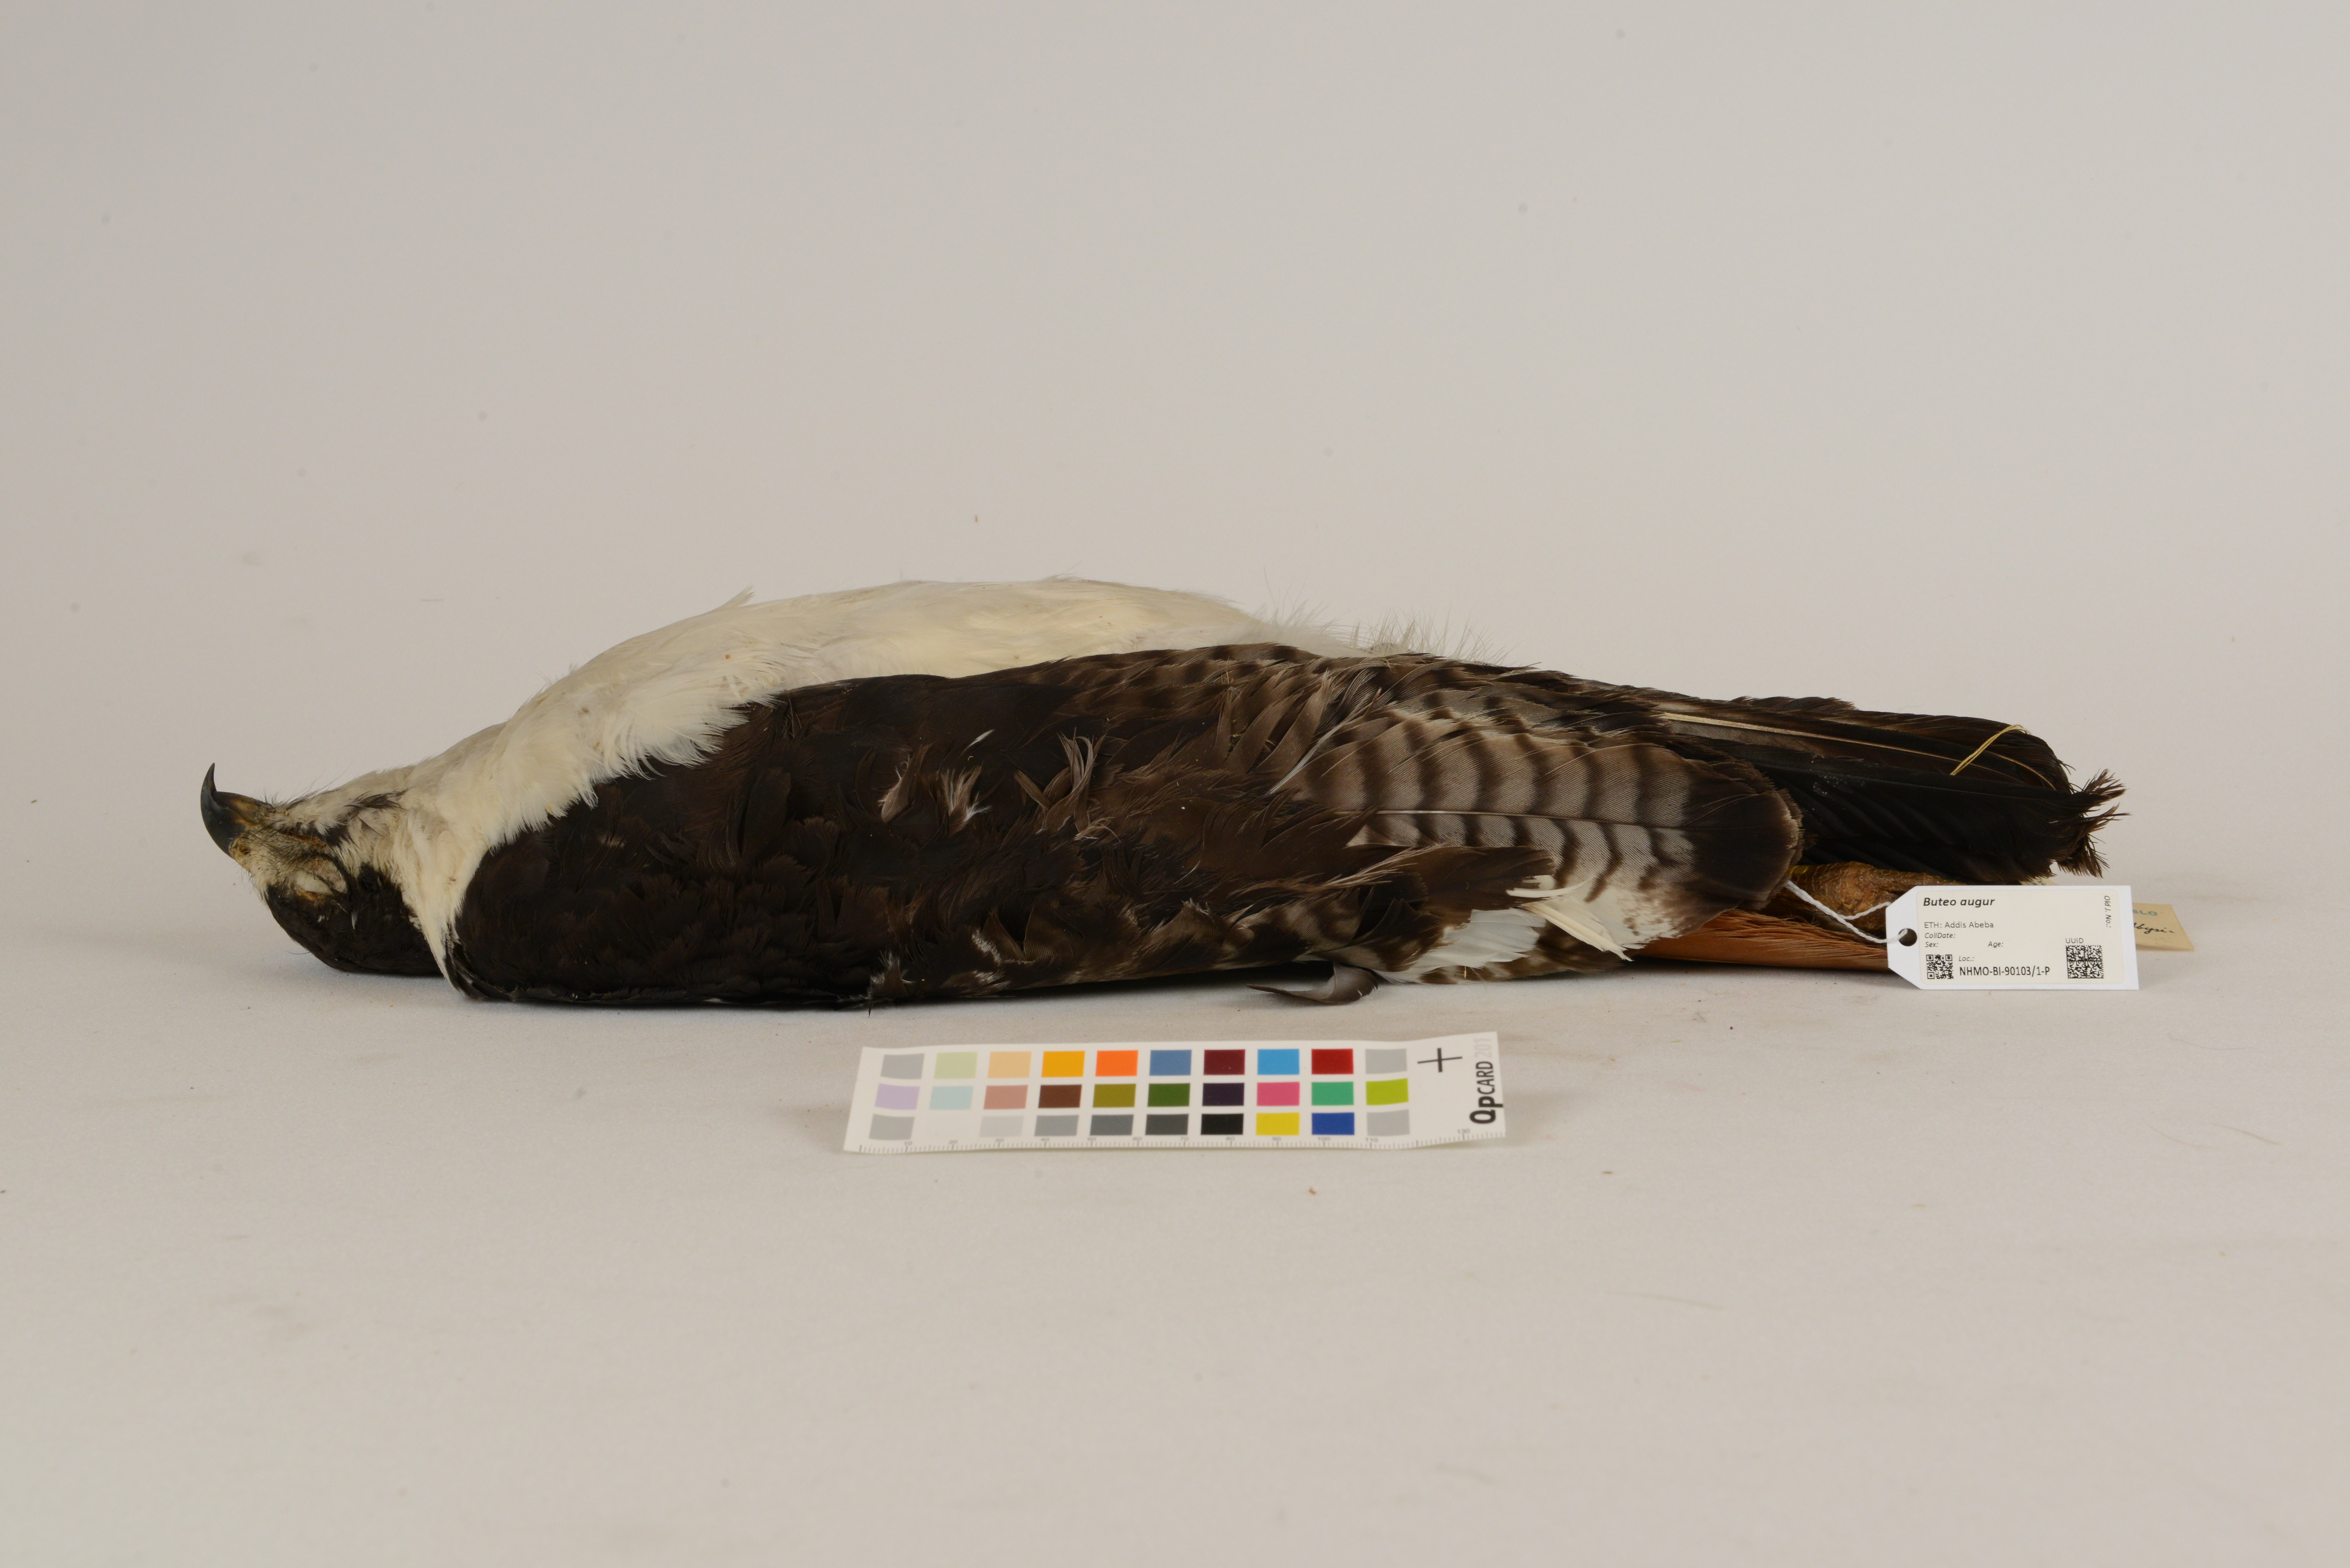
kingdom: Animalia
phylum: Chordata
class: Aves
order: Accipitriformes
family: Accipitridae
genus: Buteo
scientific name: Buteo augur
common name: Augur buzzard
